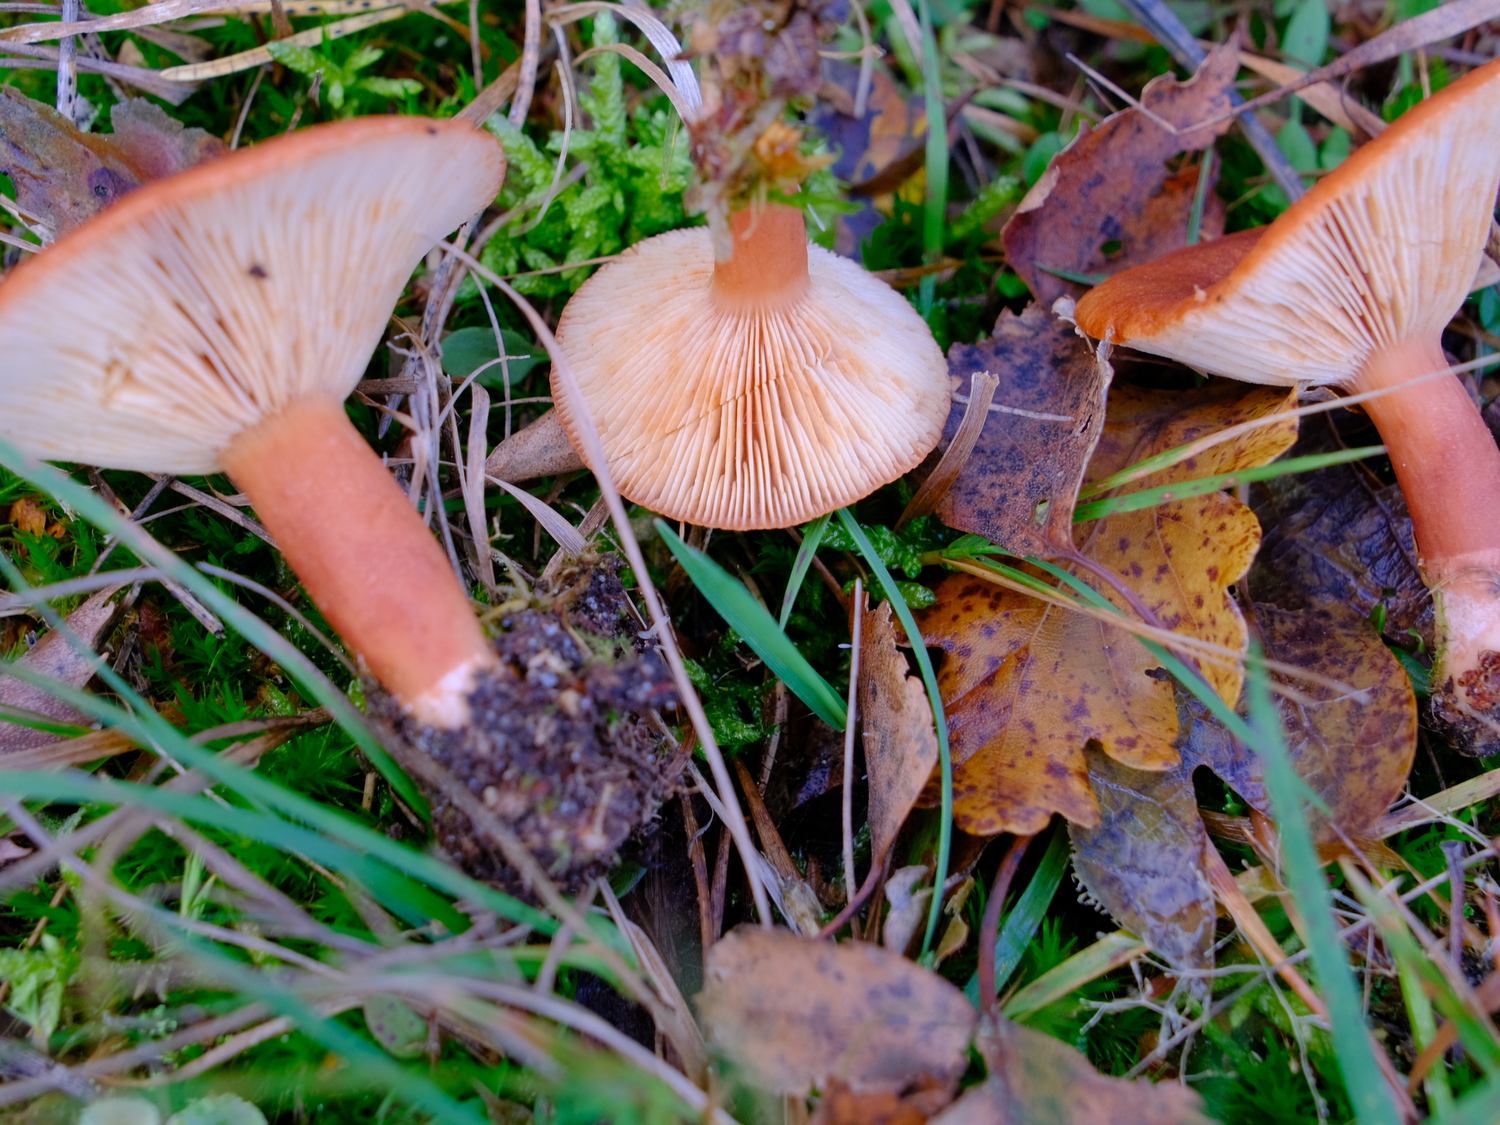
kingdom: Fungi
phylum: Basidiomycota
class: Agaricomycetes
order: Russulales
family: Russulaceae
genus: Lactarius
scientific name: Lactarius rufus
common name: rødbrun mælkehat
